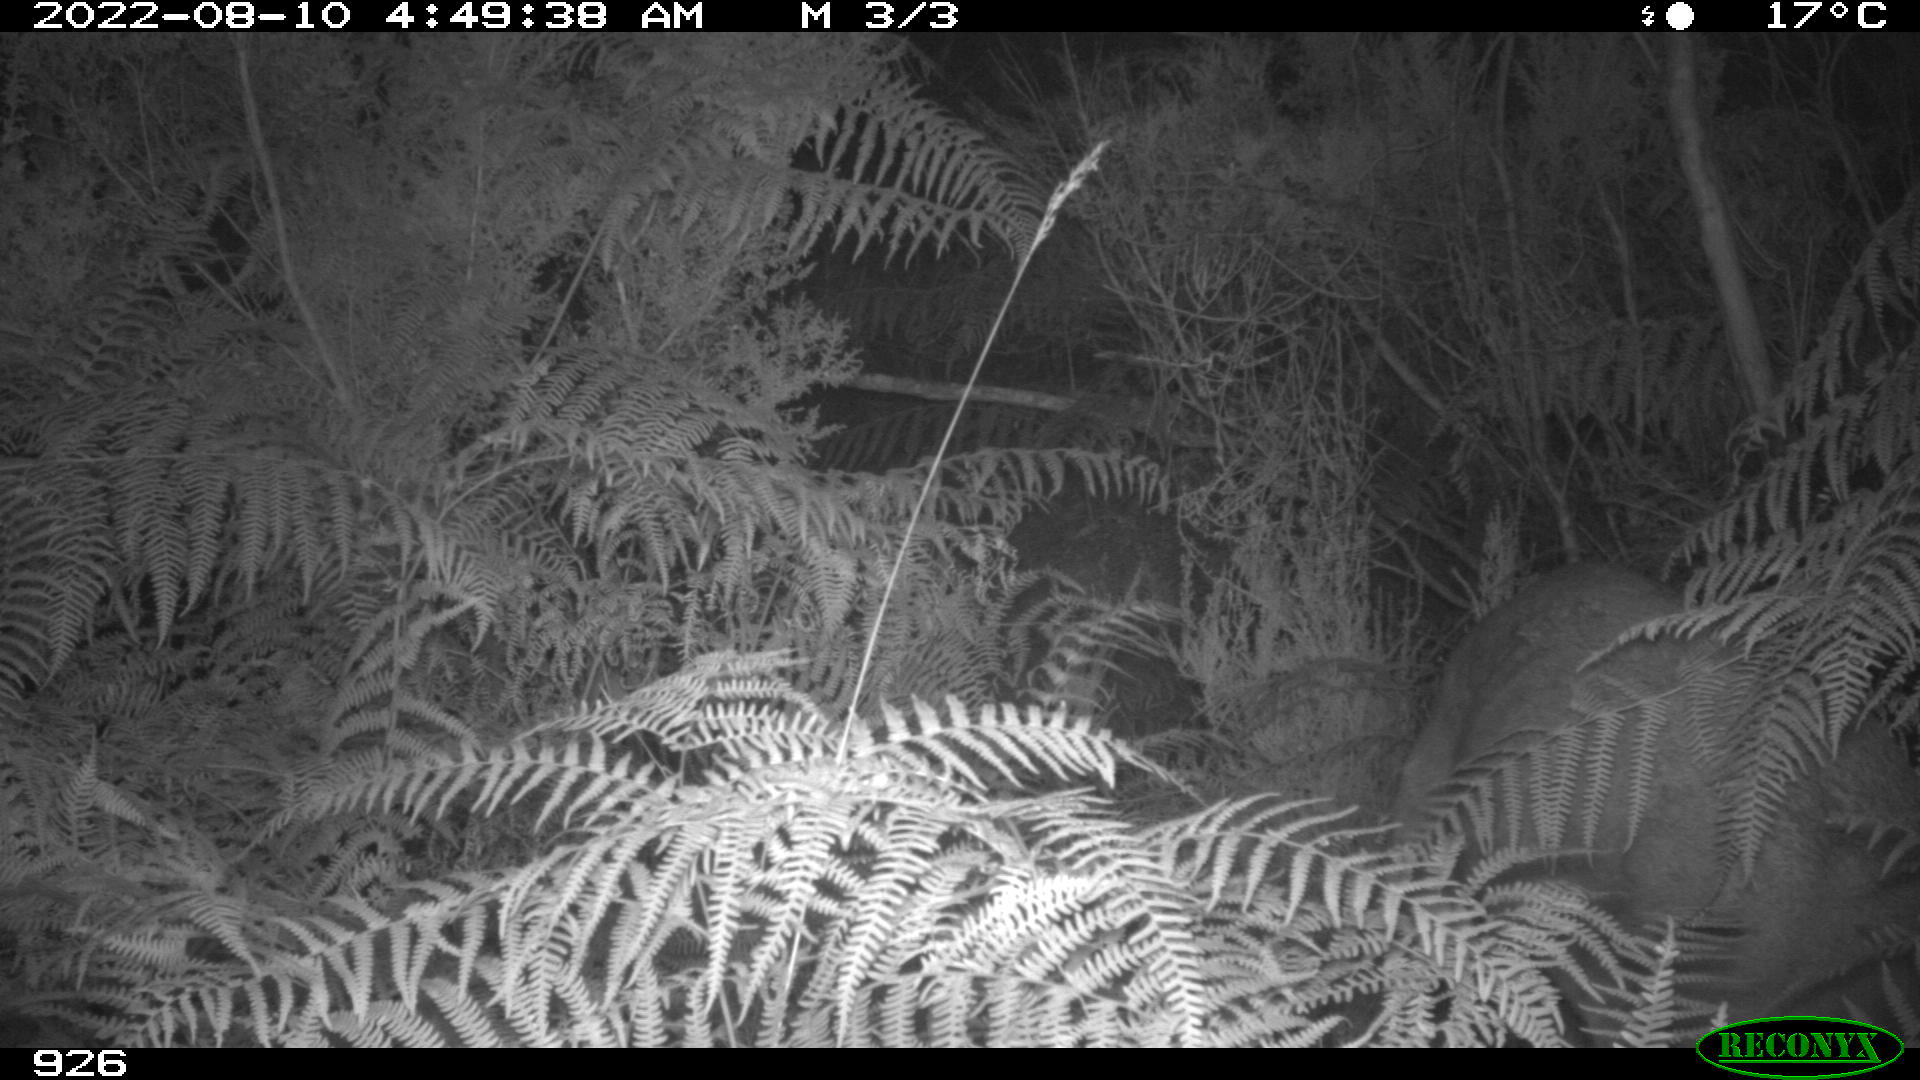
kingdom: Animalia
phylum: Chordata
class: Mammalia
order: Artiodactyla
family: Cervidae
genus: Capreolus
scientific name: Capreolus capreolus
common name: Western roe deer
